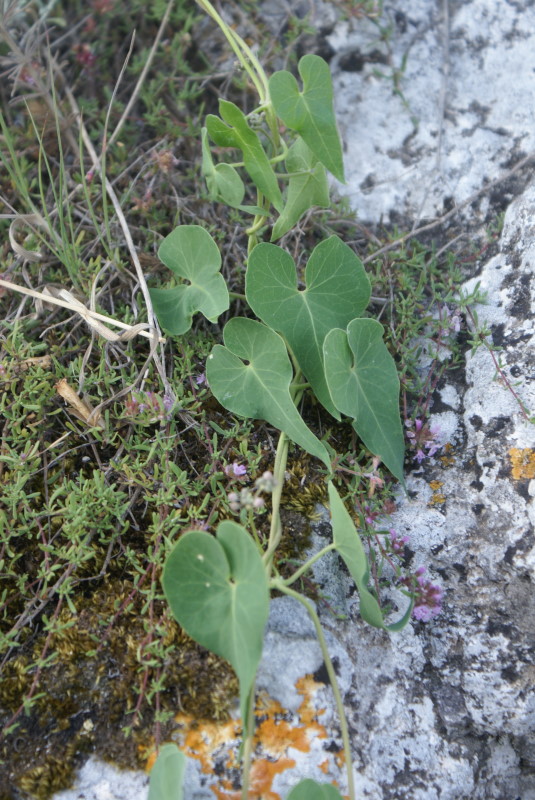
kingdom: Plantae
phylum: Tracheophyta
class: Magnoliopsida
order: Gentianales
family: Apocynaceae
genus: Cynanchum
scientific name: Cynanchum acutum
